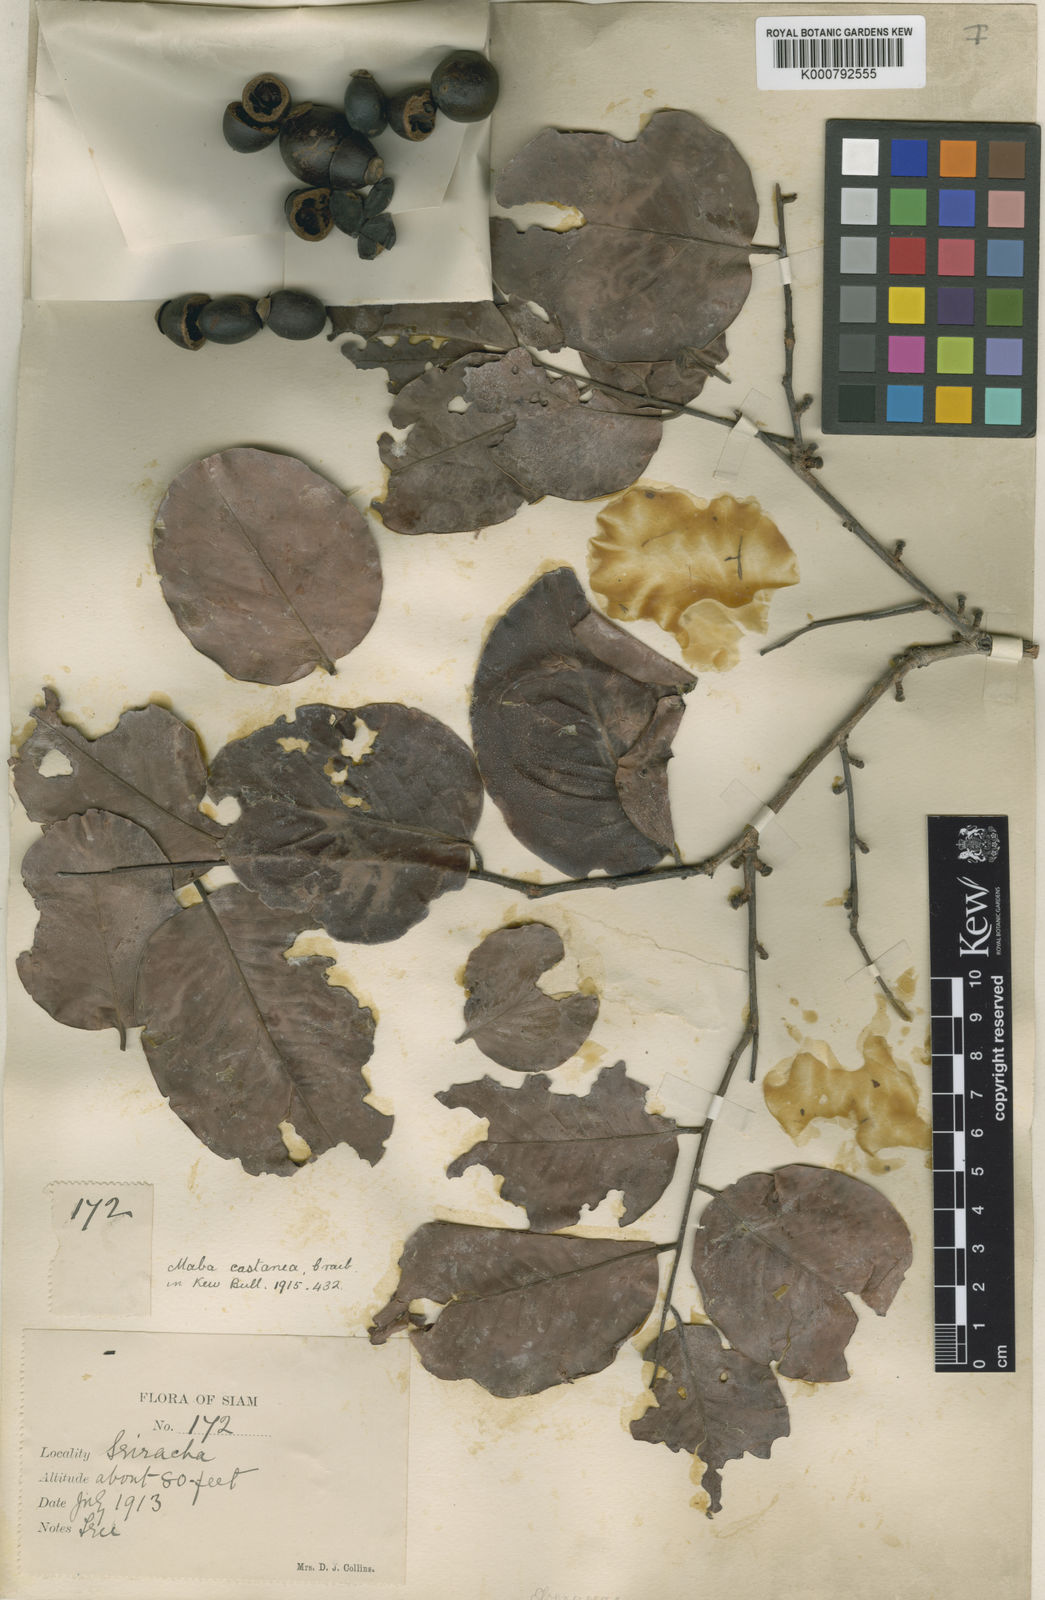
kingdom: Plantae
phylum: Tracheophyta
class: Magnoliopsida
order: Ericales
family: Ebenaceae
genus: Diospyros
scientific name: Diospyros castanea
